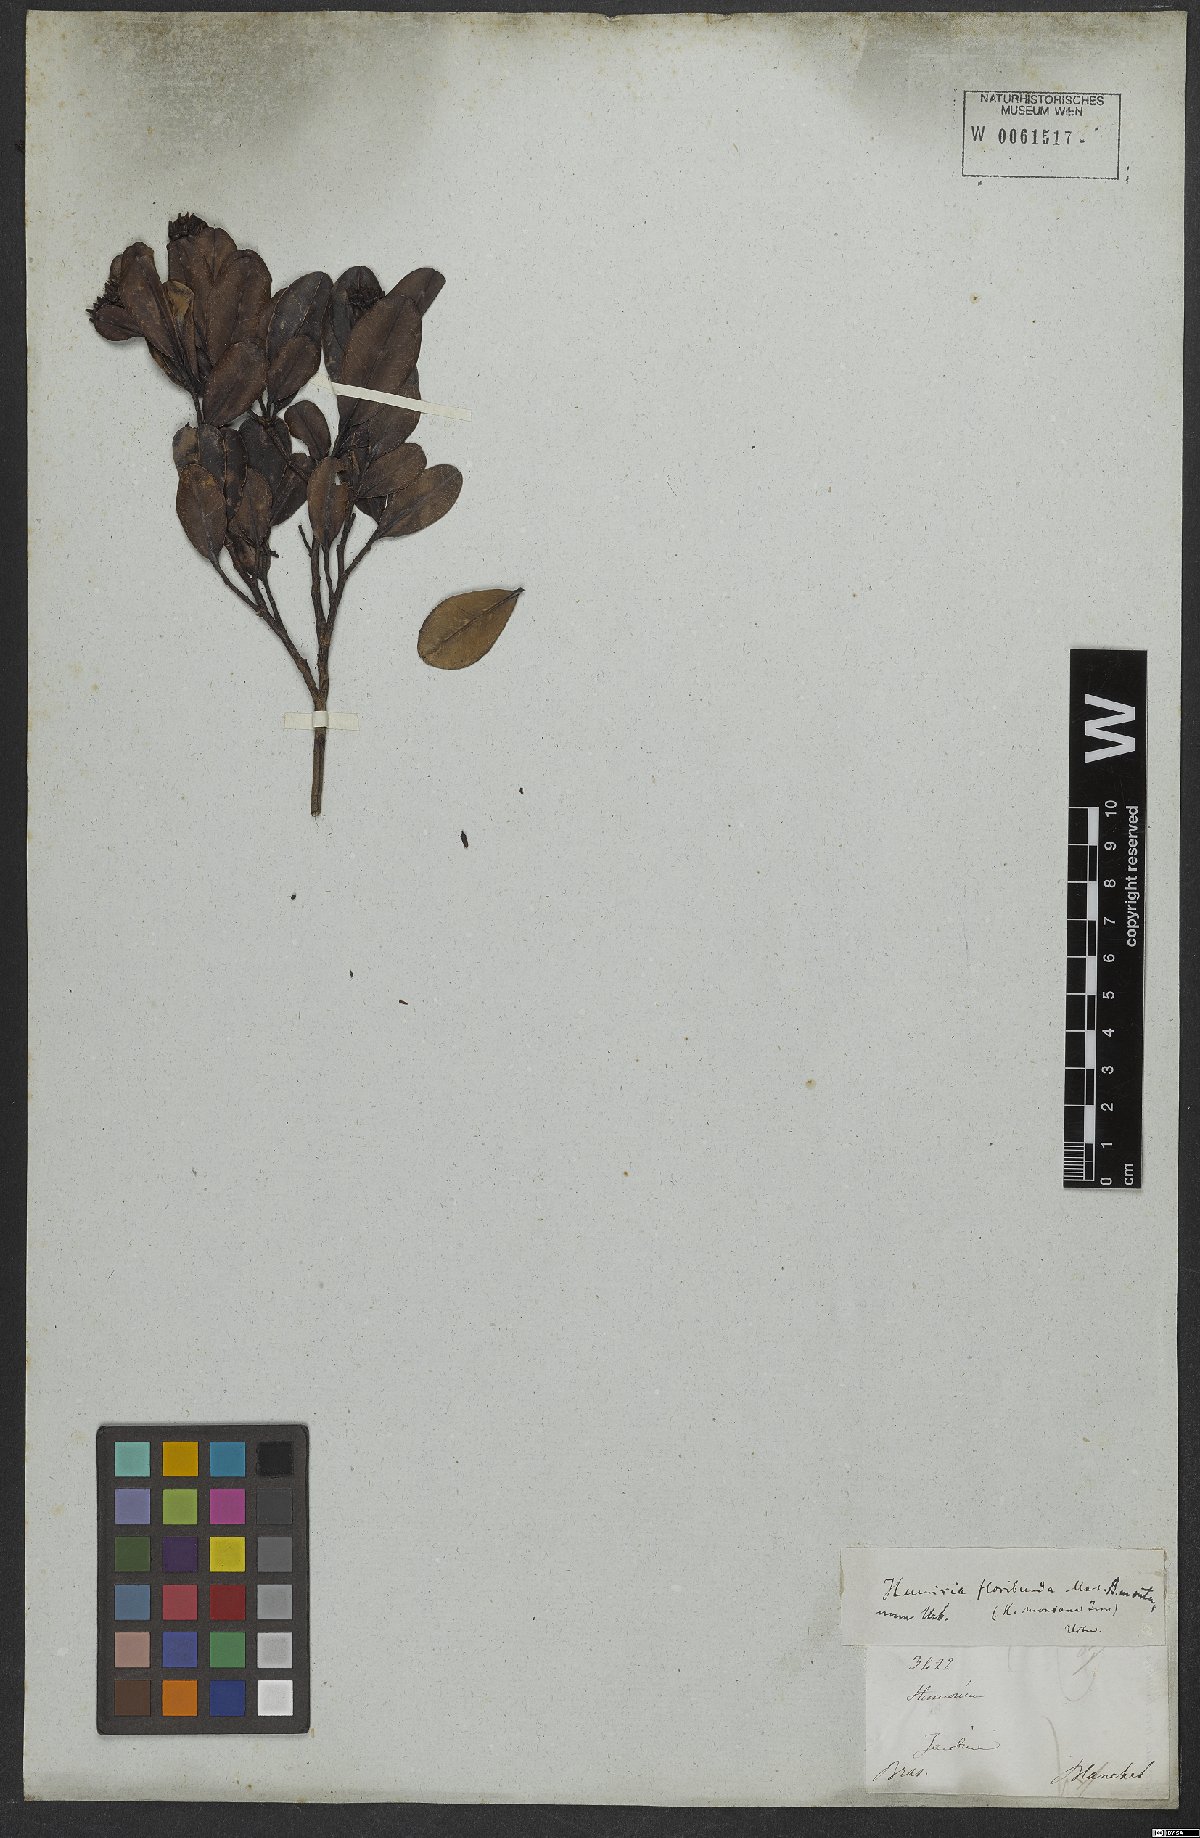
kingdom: Plantae
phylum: Tracheophyta
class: Magnoliopsida
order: Malpighiales
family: Humiriaceae
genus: Humiria
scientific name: Humiria
